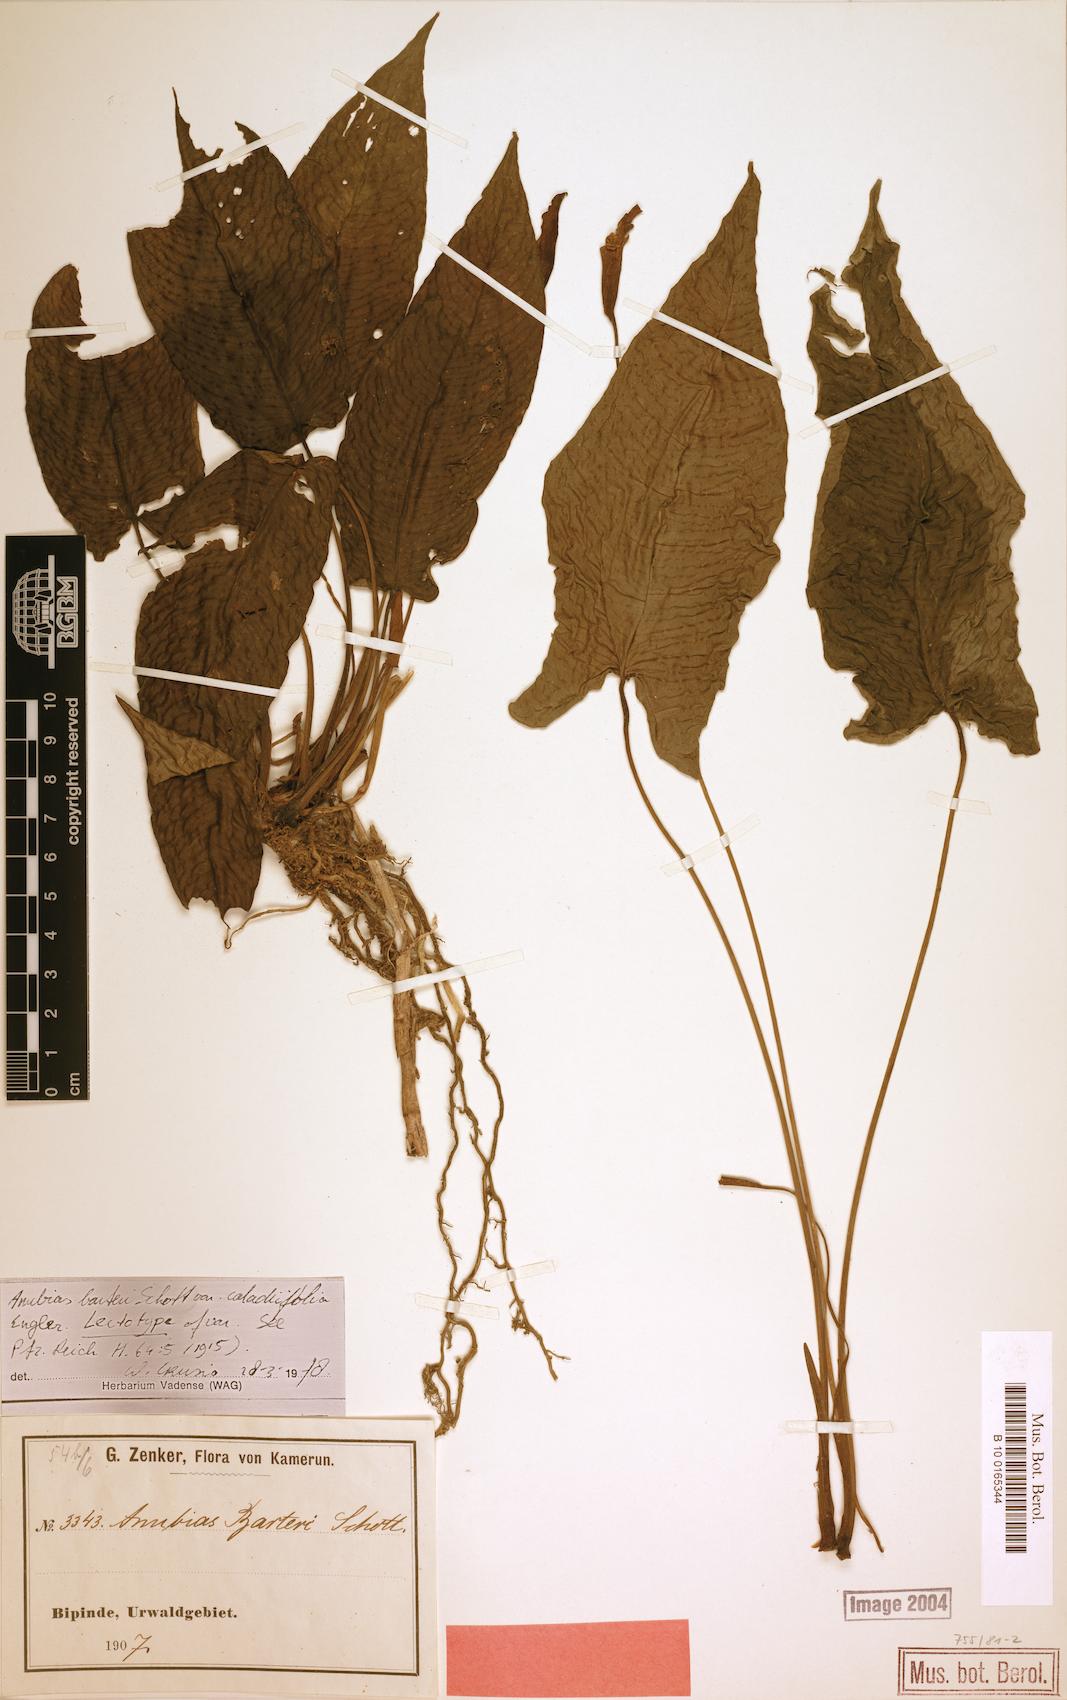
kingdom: Plantae
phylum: Tracheophyta
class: Liliopsida
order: Alismatales
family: Araceae
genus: Anubias
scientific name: Anubias barteri
